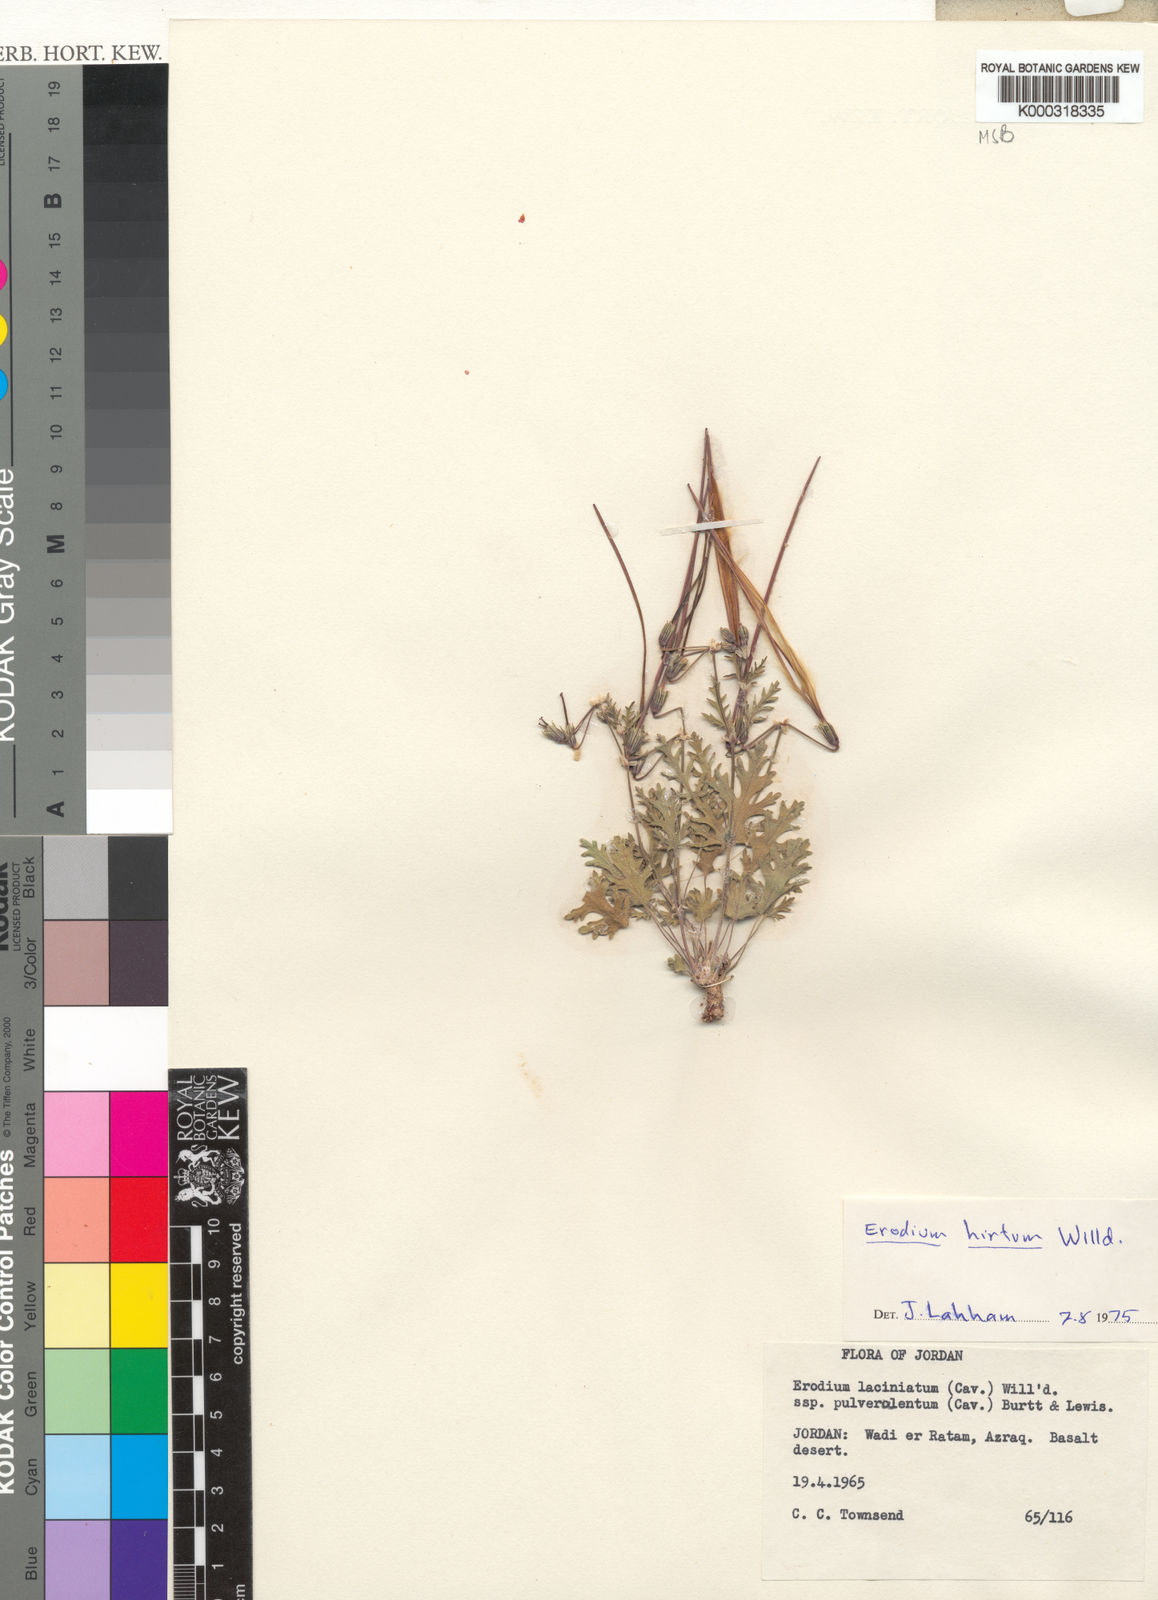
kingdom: Plantae
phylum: Tracheophyta
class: Magnoliopsida
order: Geraniales
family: Geraniaceae
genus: Erodium
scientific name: Erodium crassifolium
